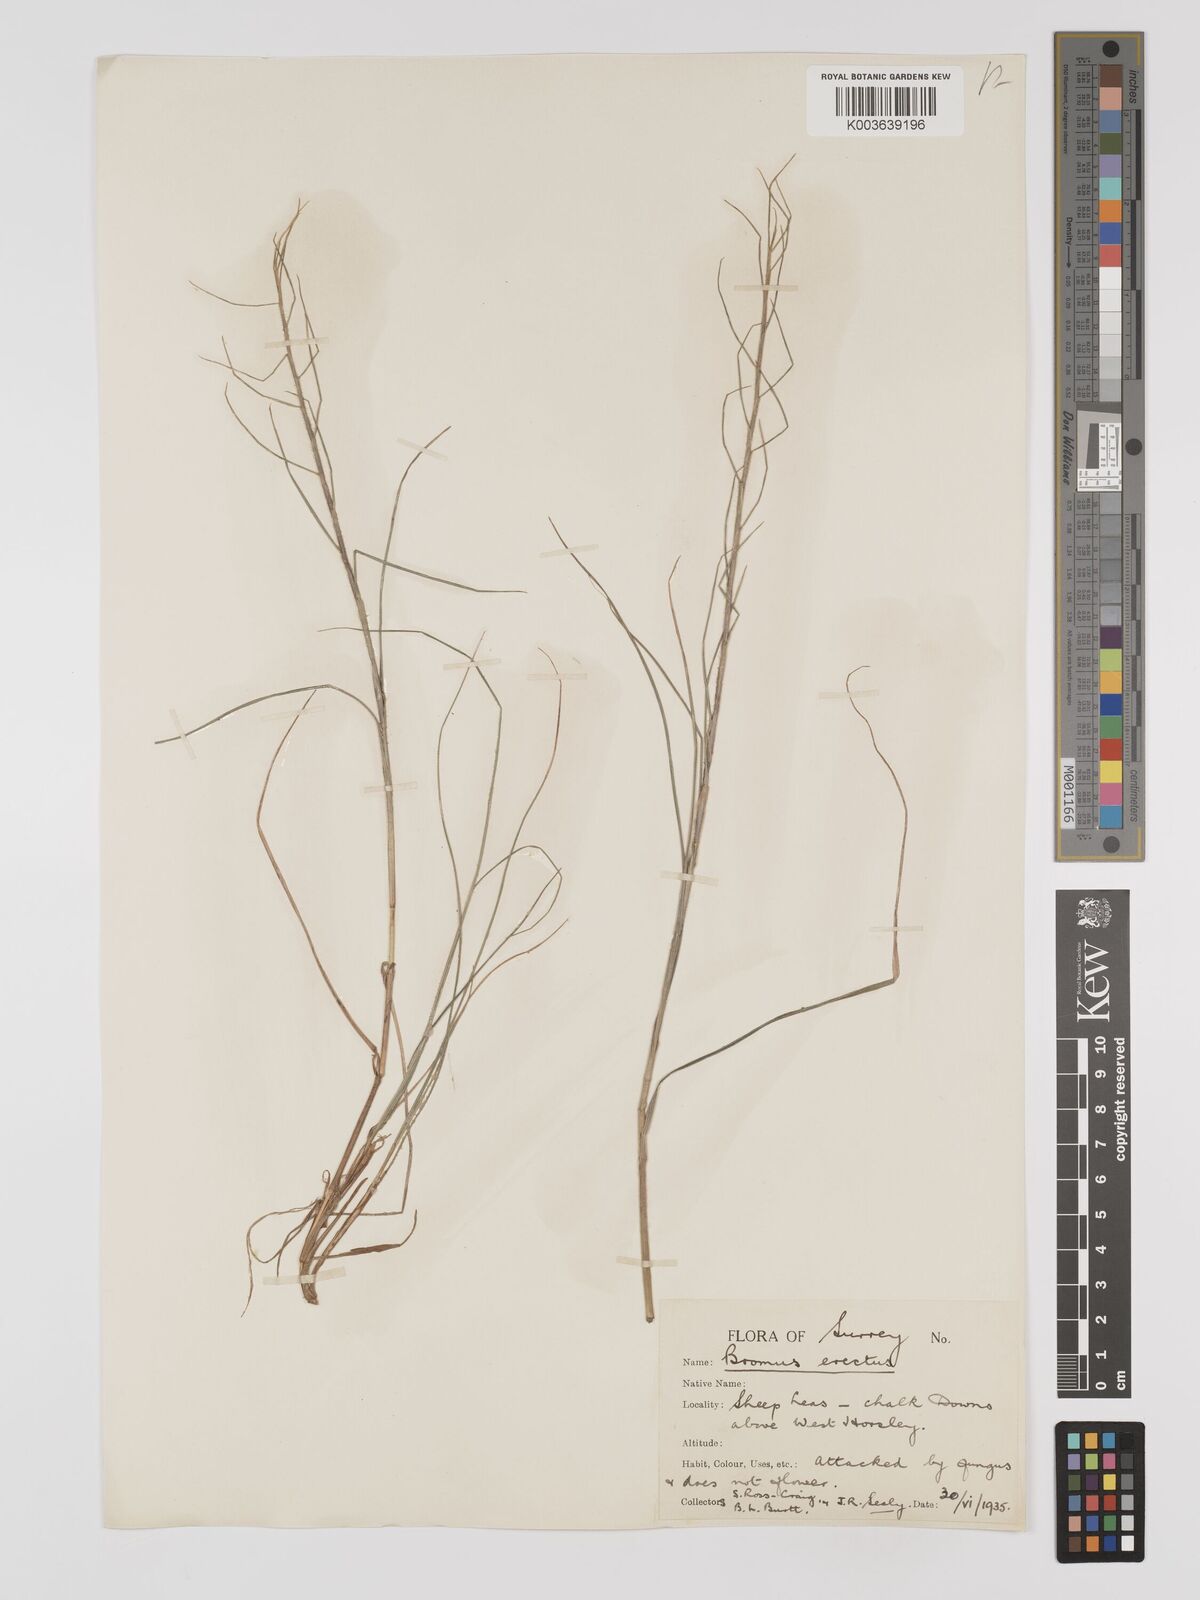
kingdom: Plantae
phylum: Tracheophyta
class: Liliopsida
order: Poales
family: Poaceae
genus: Bromus
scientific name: Bromus erectus
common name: Erect brome
